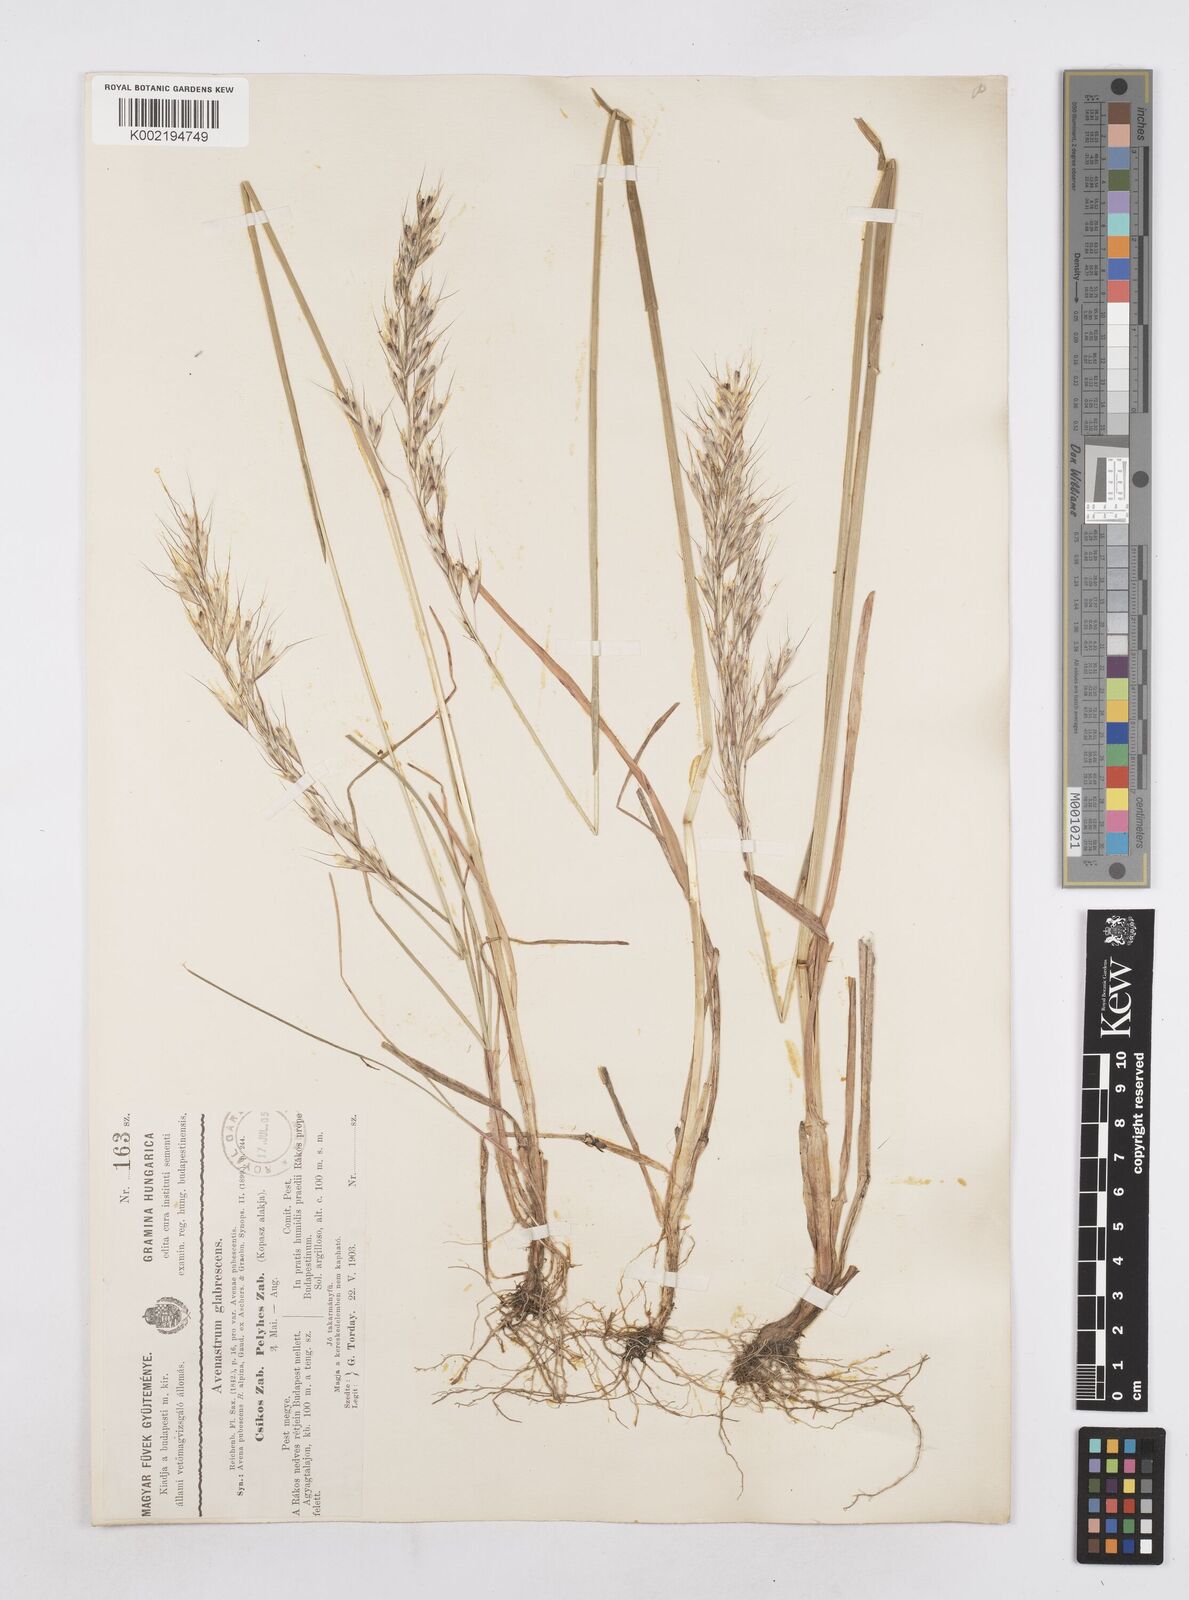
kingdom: Plantae
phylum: Tracheophyta
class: Liliopsida
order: Poales
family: Poaceae
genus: Avenula
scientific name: Avenula pubescens
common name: Downy alpine oatgrass
